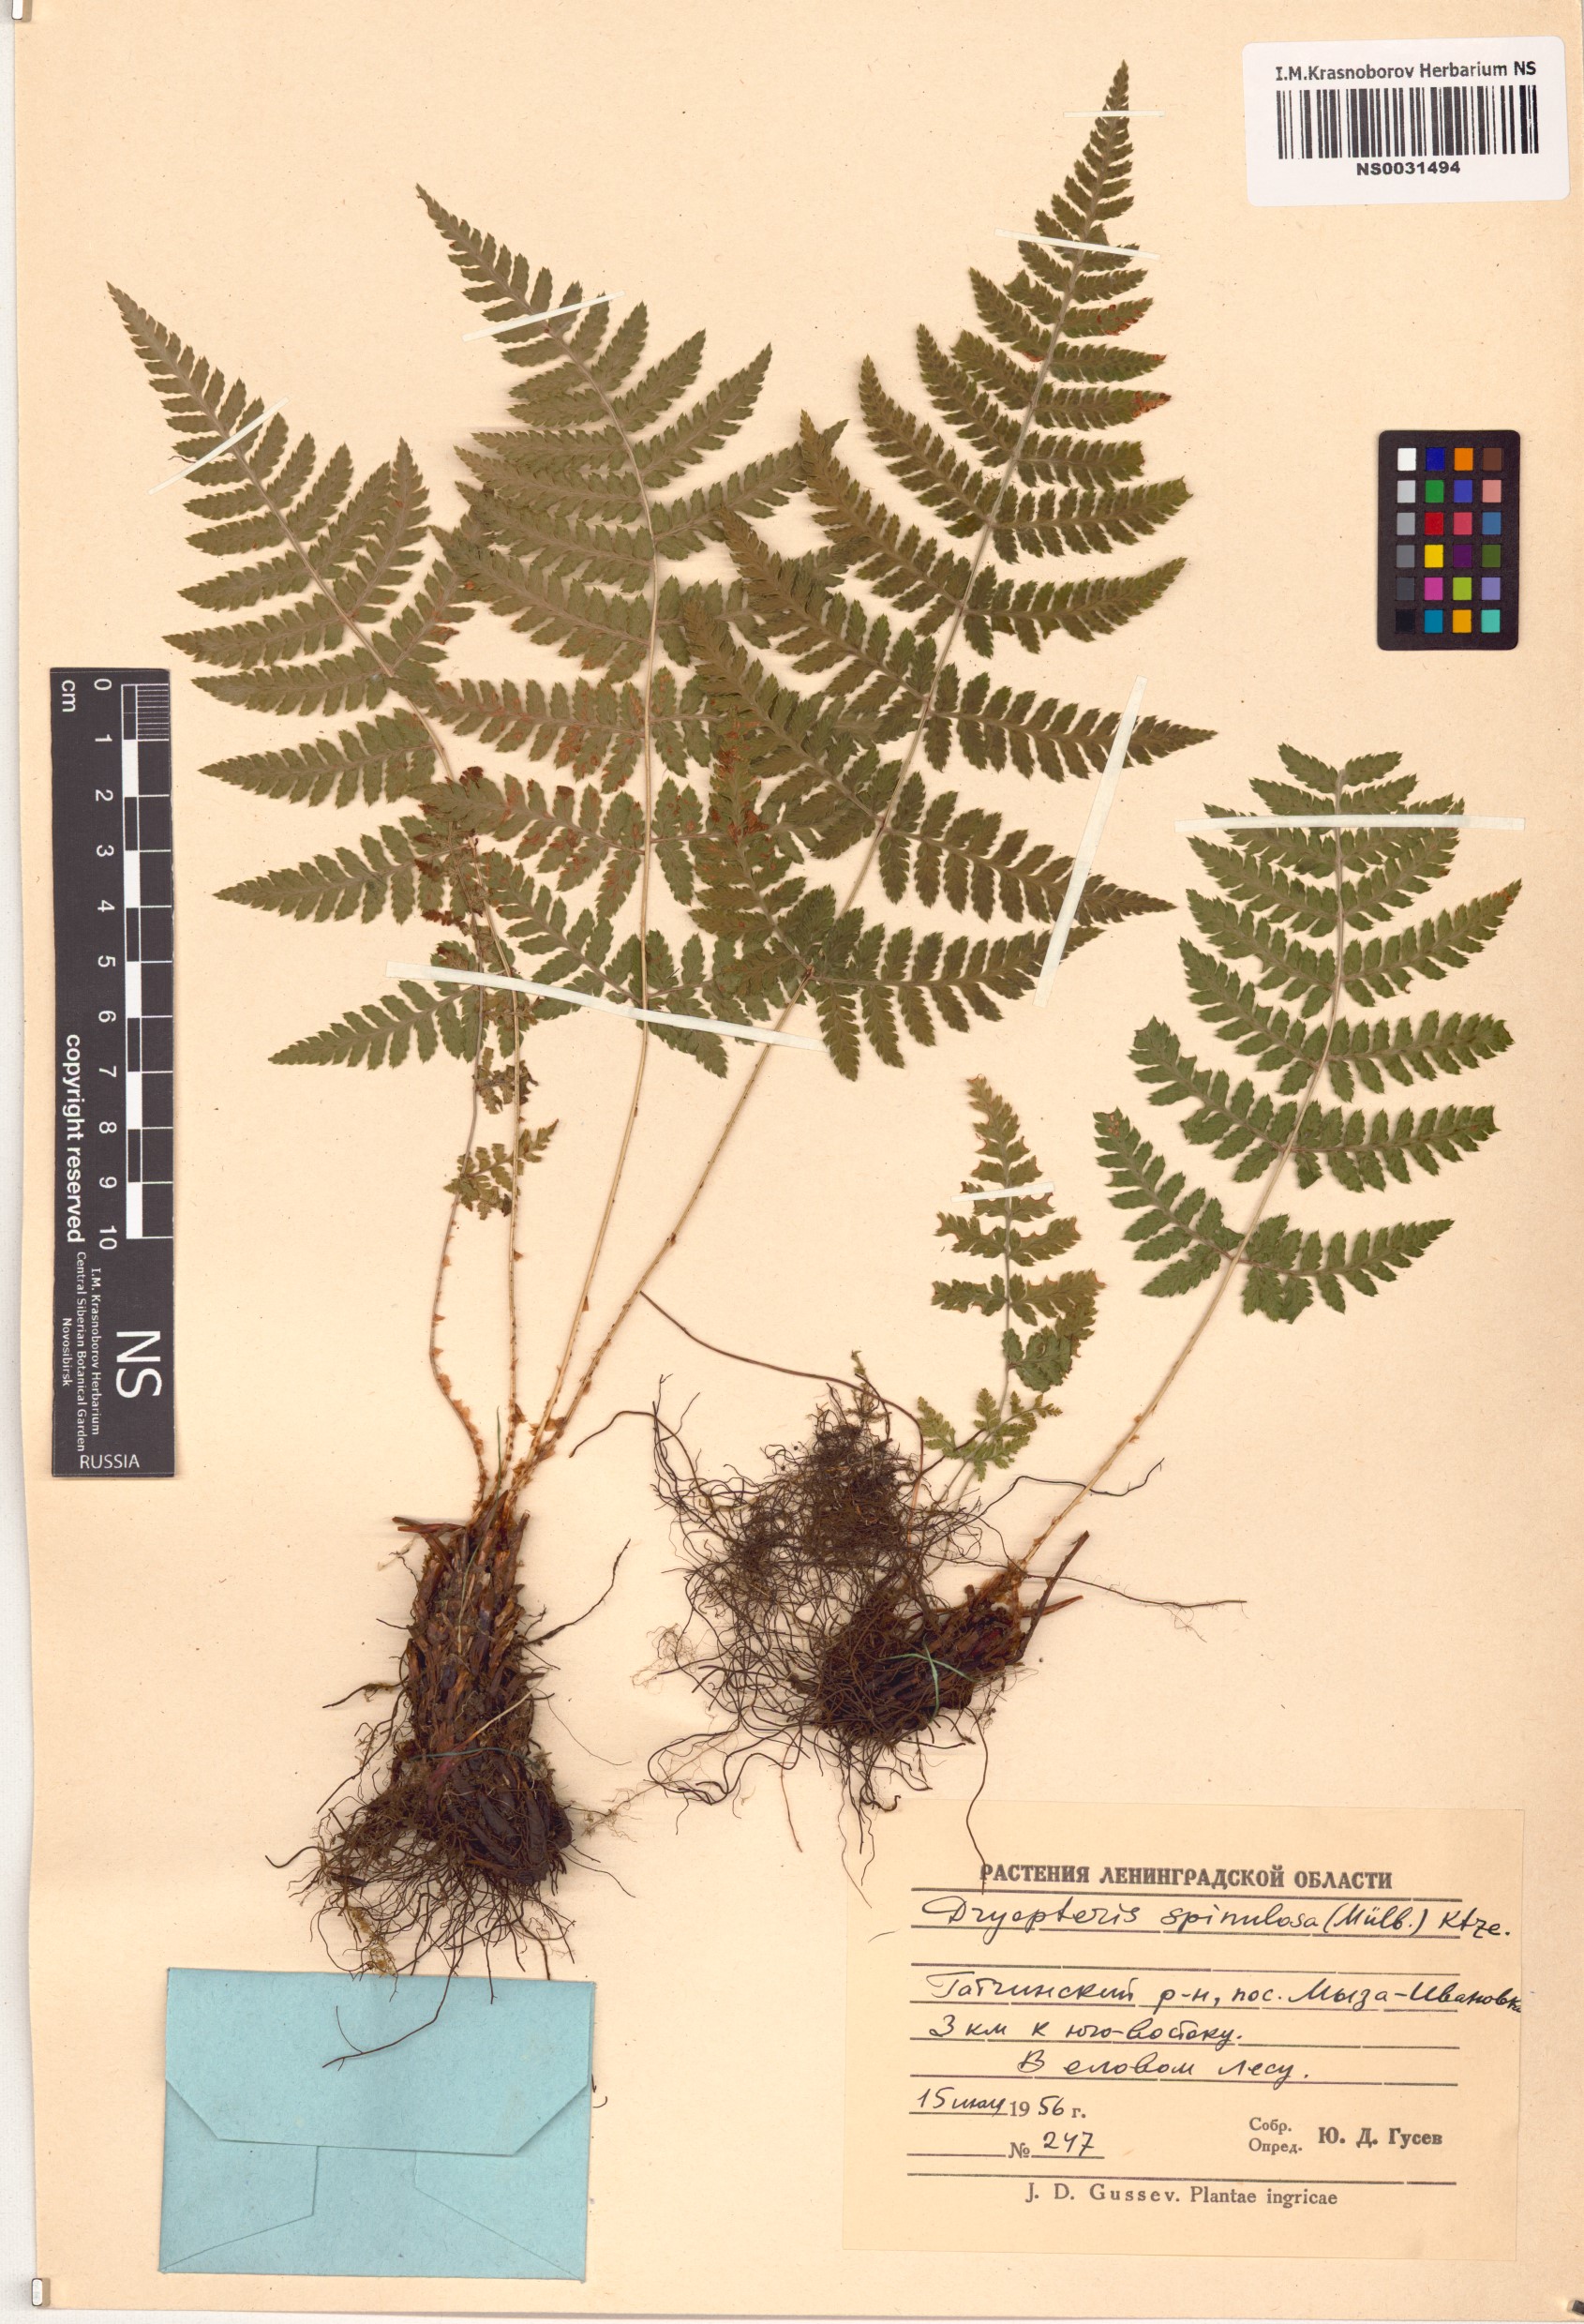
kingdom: Plantae
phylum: Tracheophyta
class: Polypodiopsida
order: Polypodiales
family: Dryopteridaceae
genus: Dryopteris
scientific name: Dryopteris carthusiana
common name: Narrow buckler-fern
